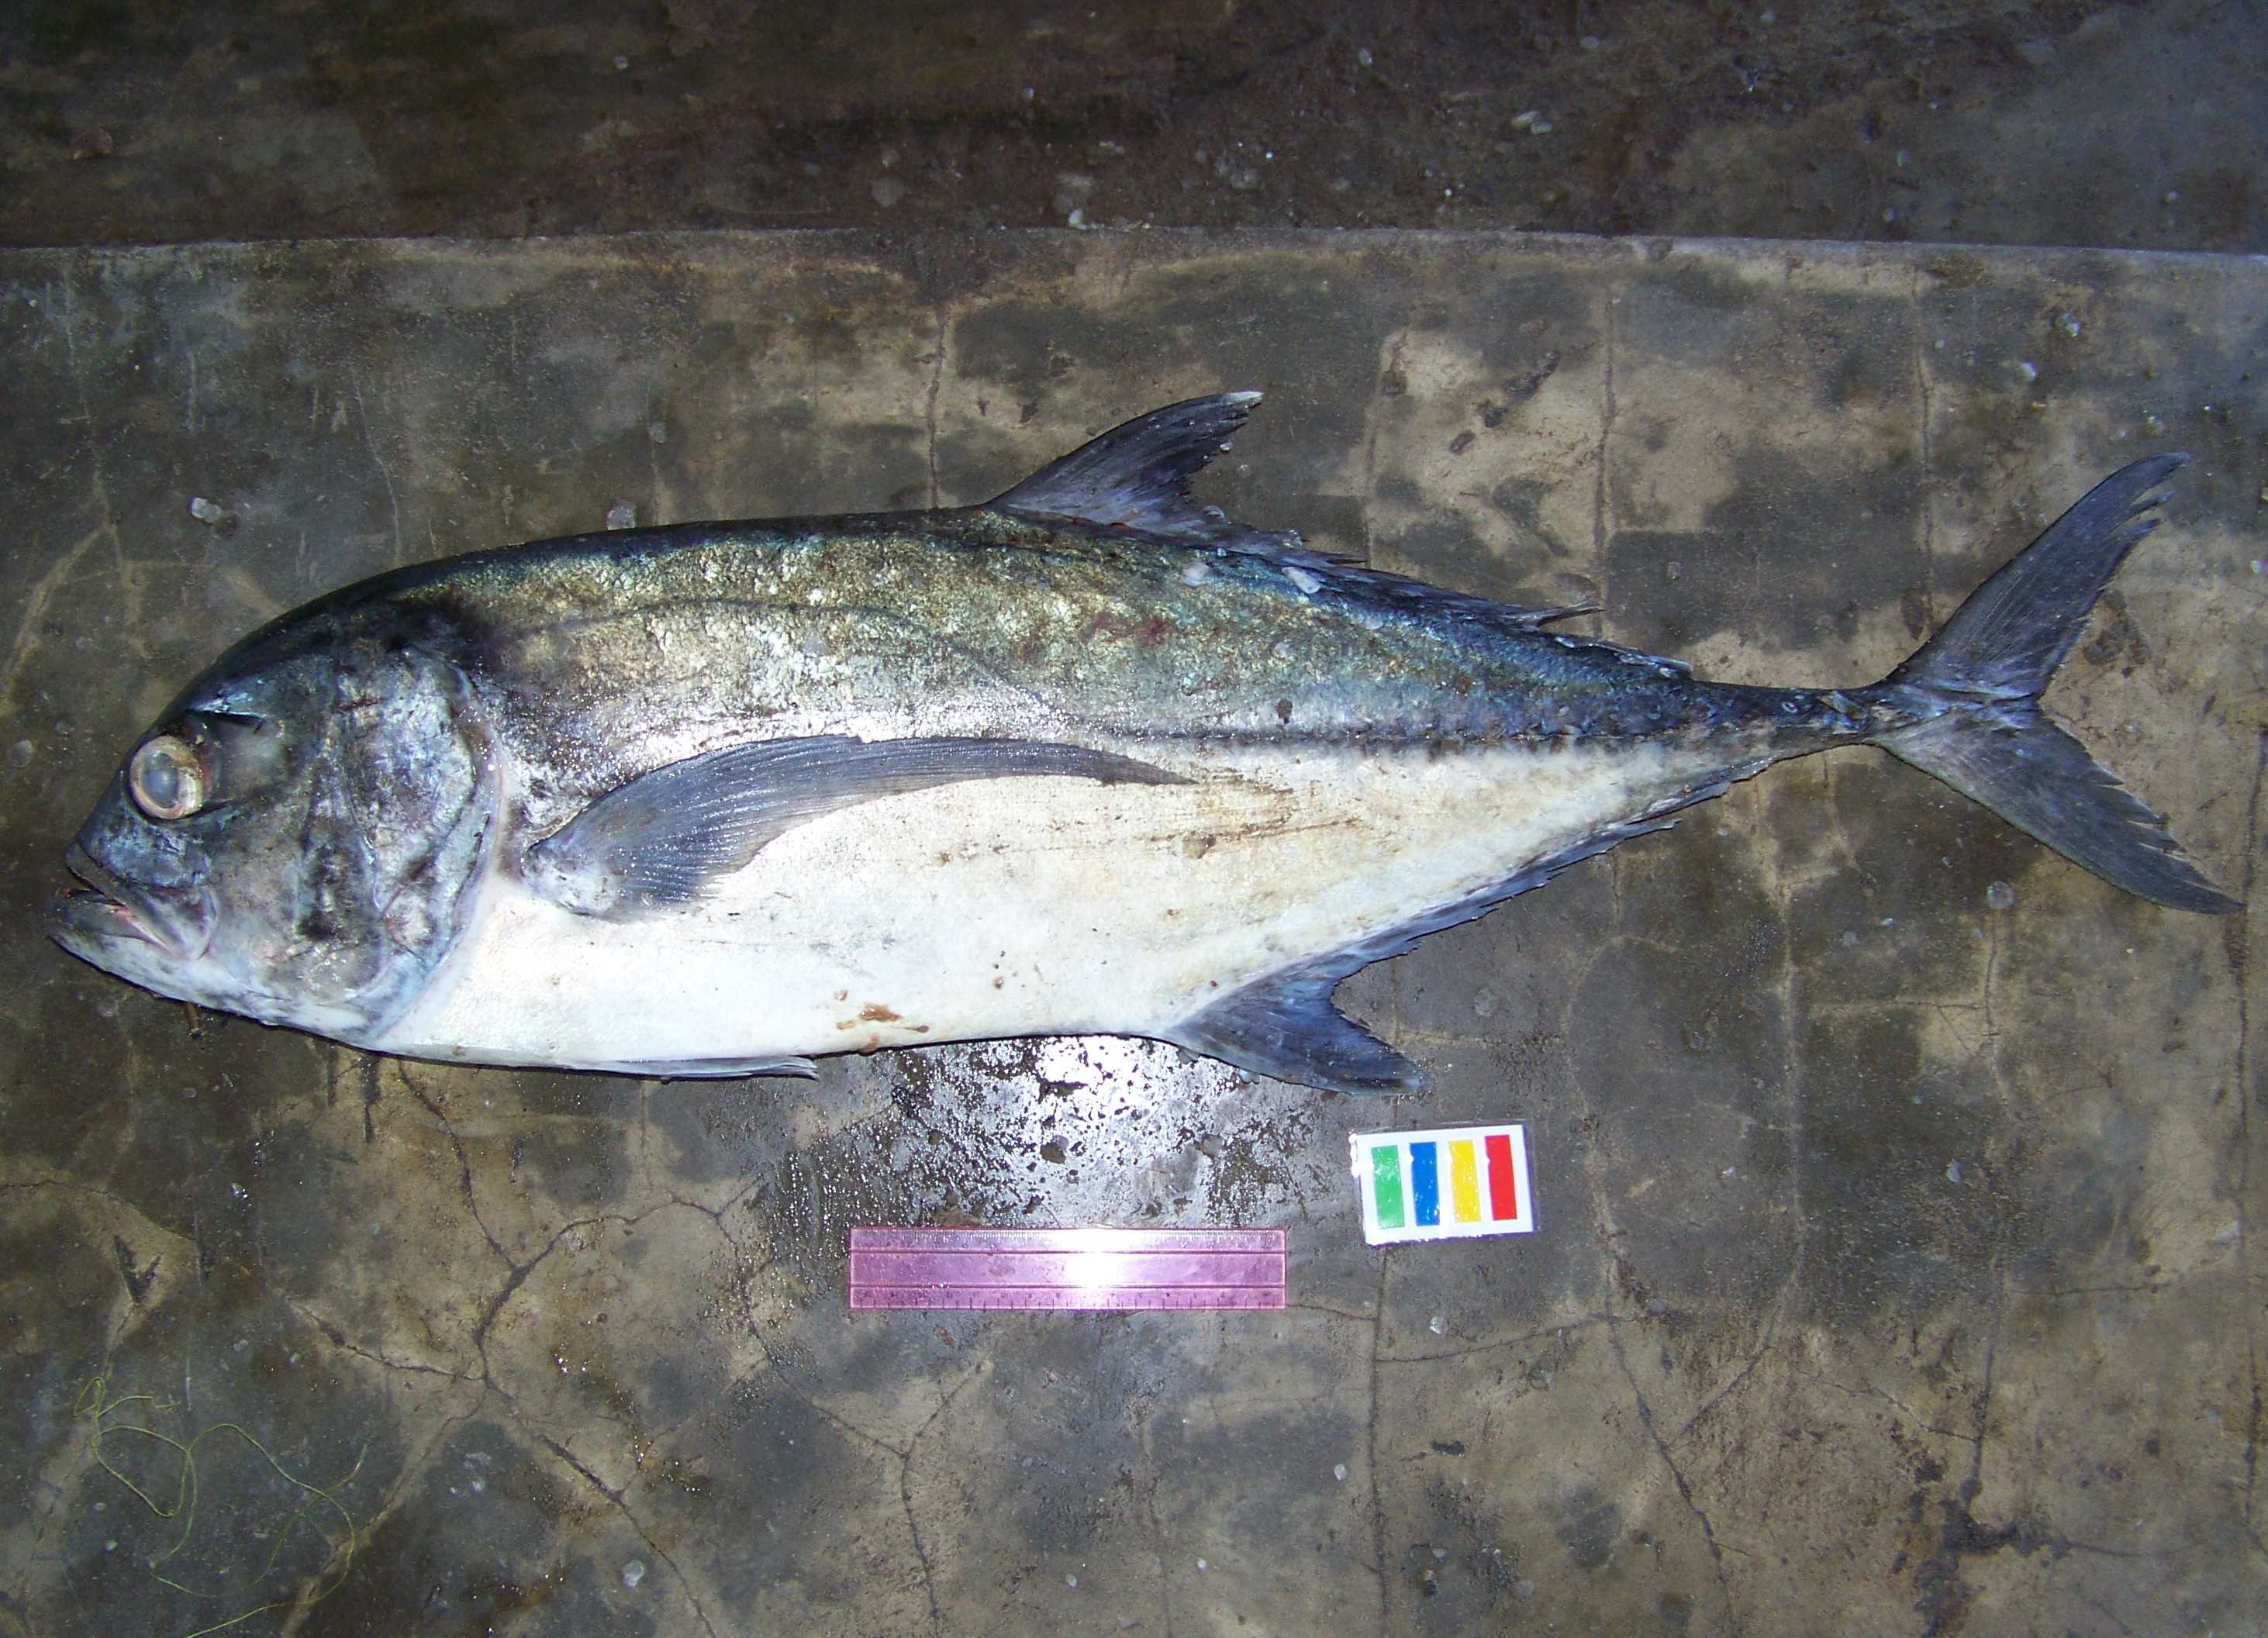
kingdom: Animalia
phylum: Chordata
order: Perciformes
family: Carangidae
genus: Alectis
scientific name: Alectis ciliaris
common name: African pompano
